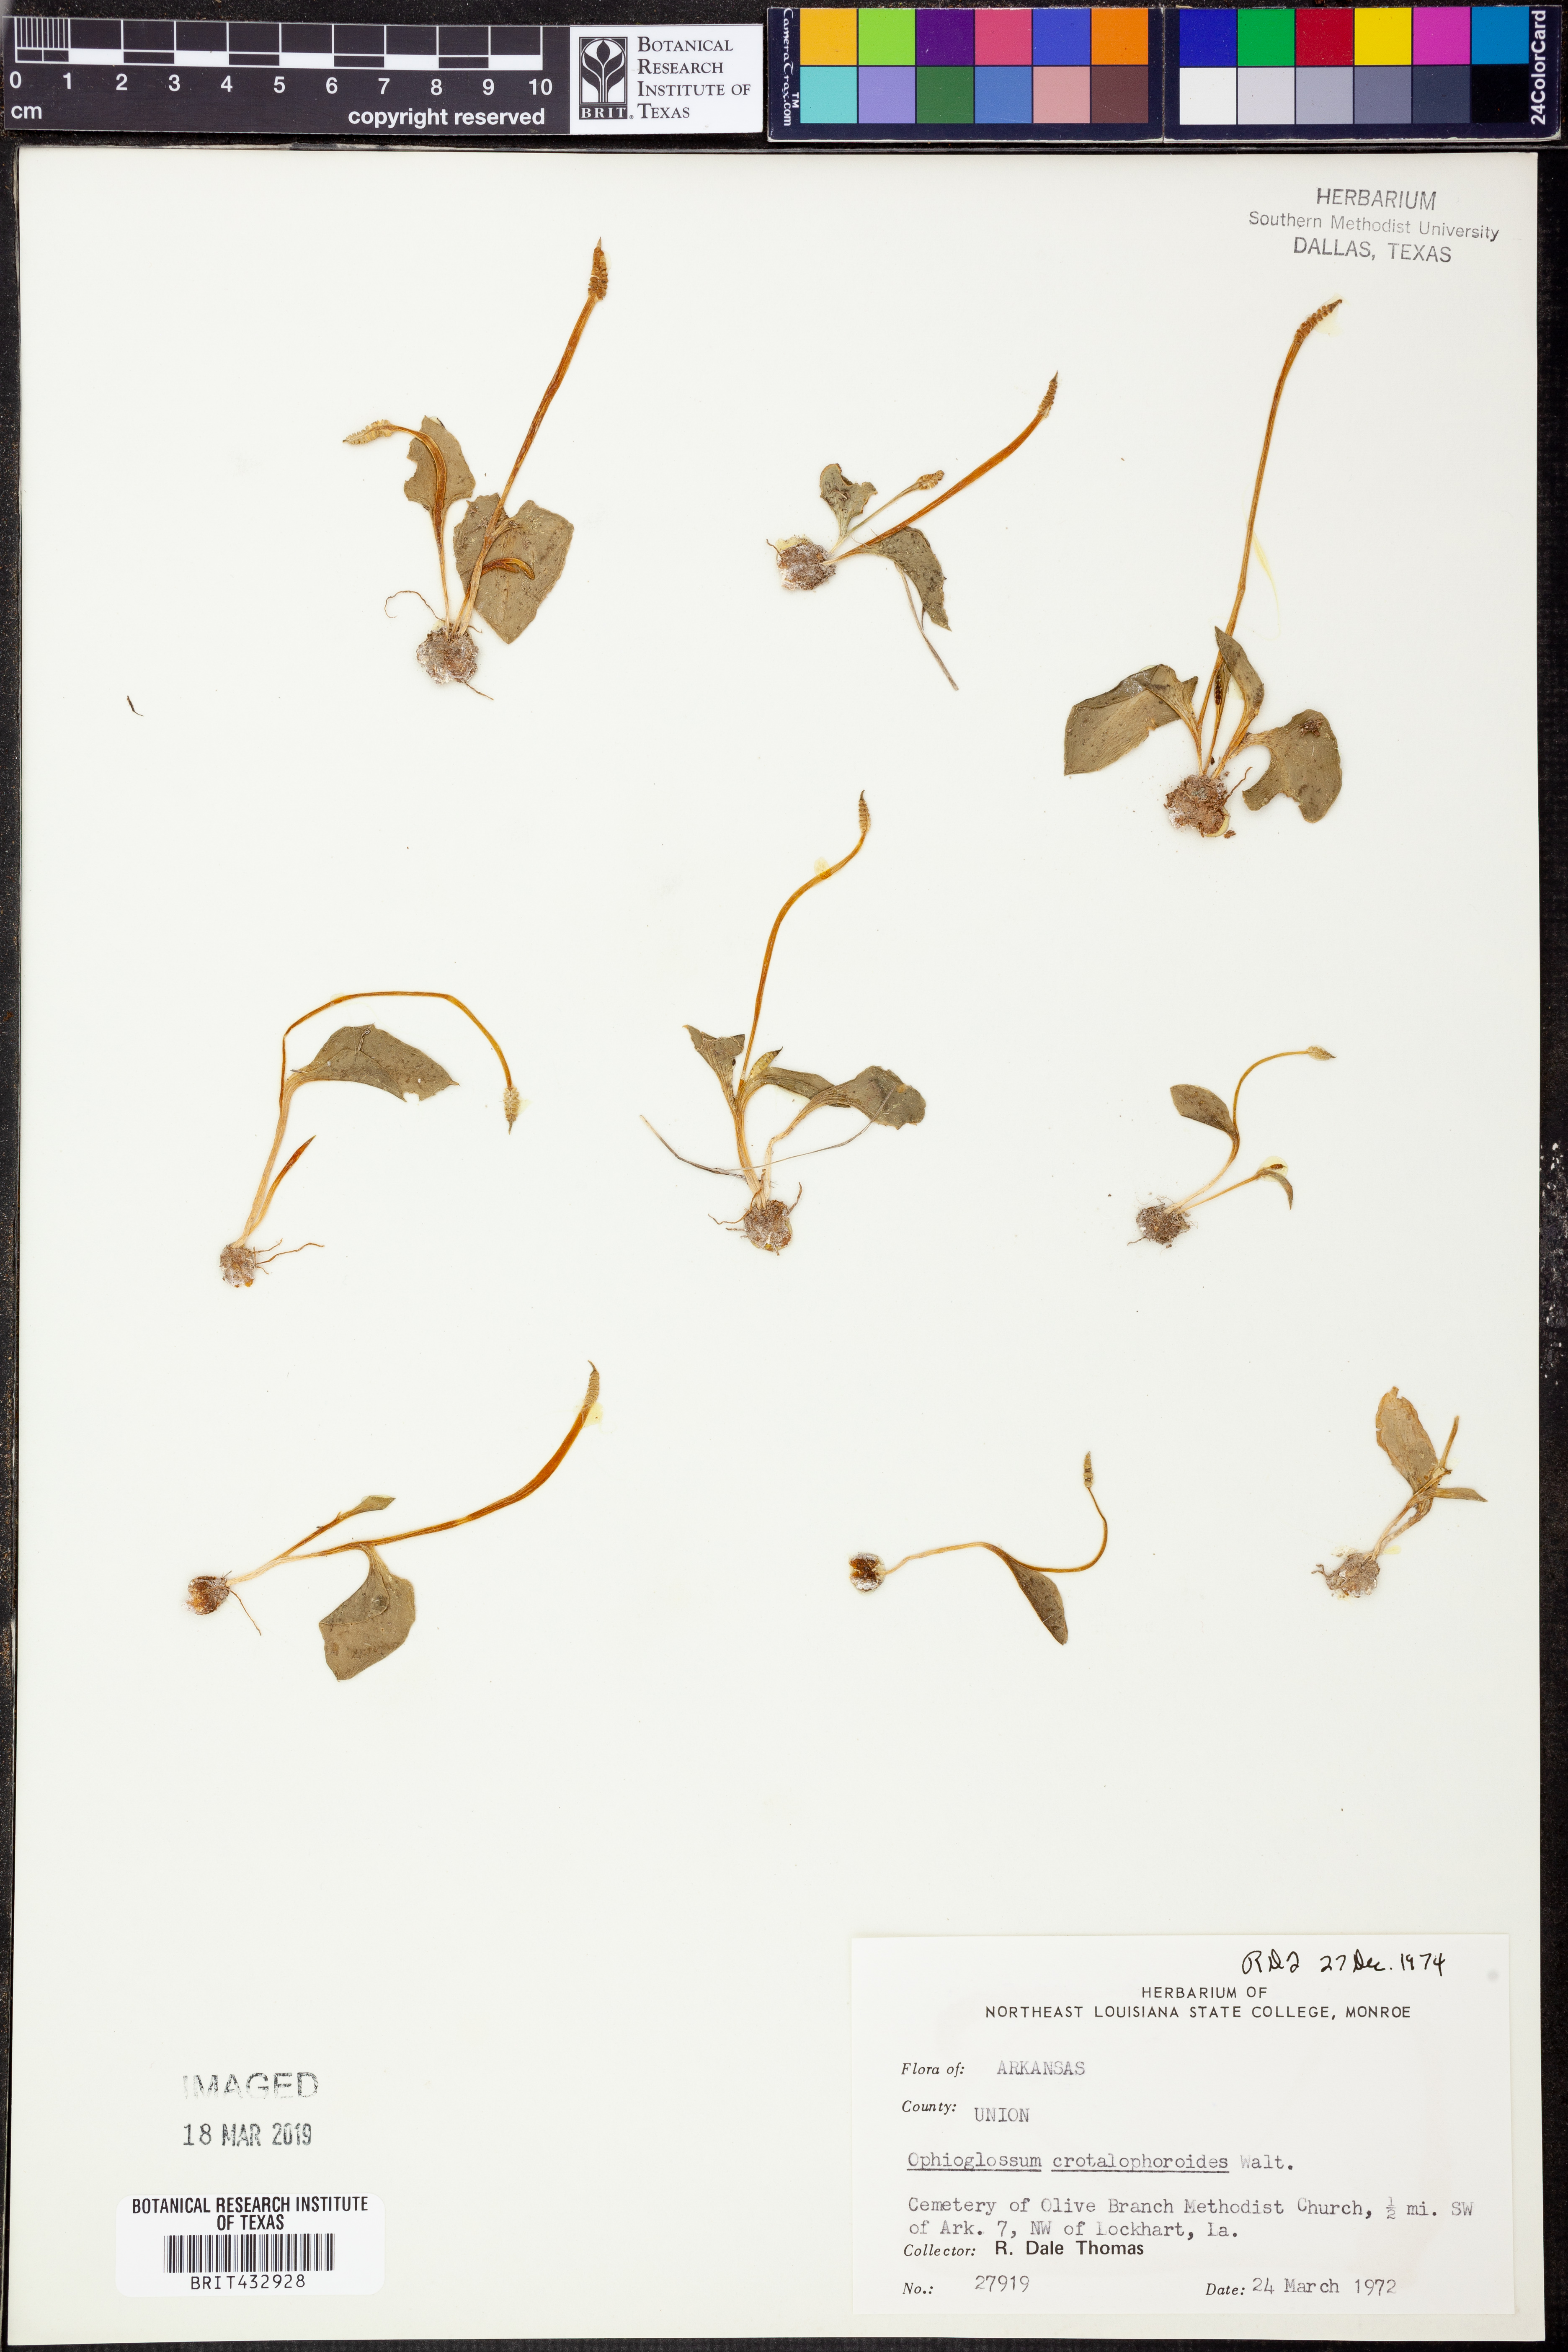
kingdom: Plantae
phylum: Tracheophyta
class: Polypodiopsida
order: Ophioglossales
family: Ophioglossaceae
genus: Ophioglossum
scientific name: Ophioglossum crotalophoroides
